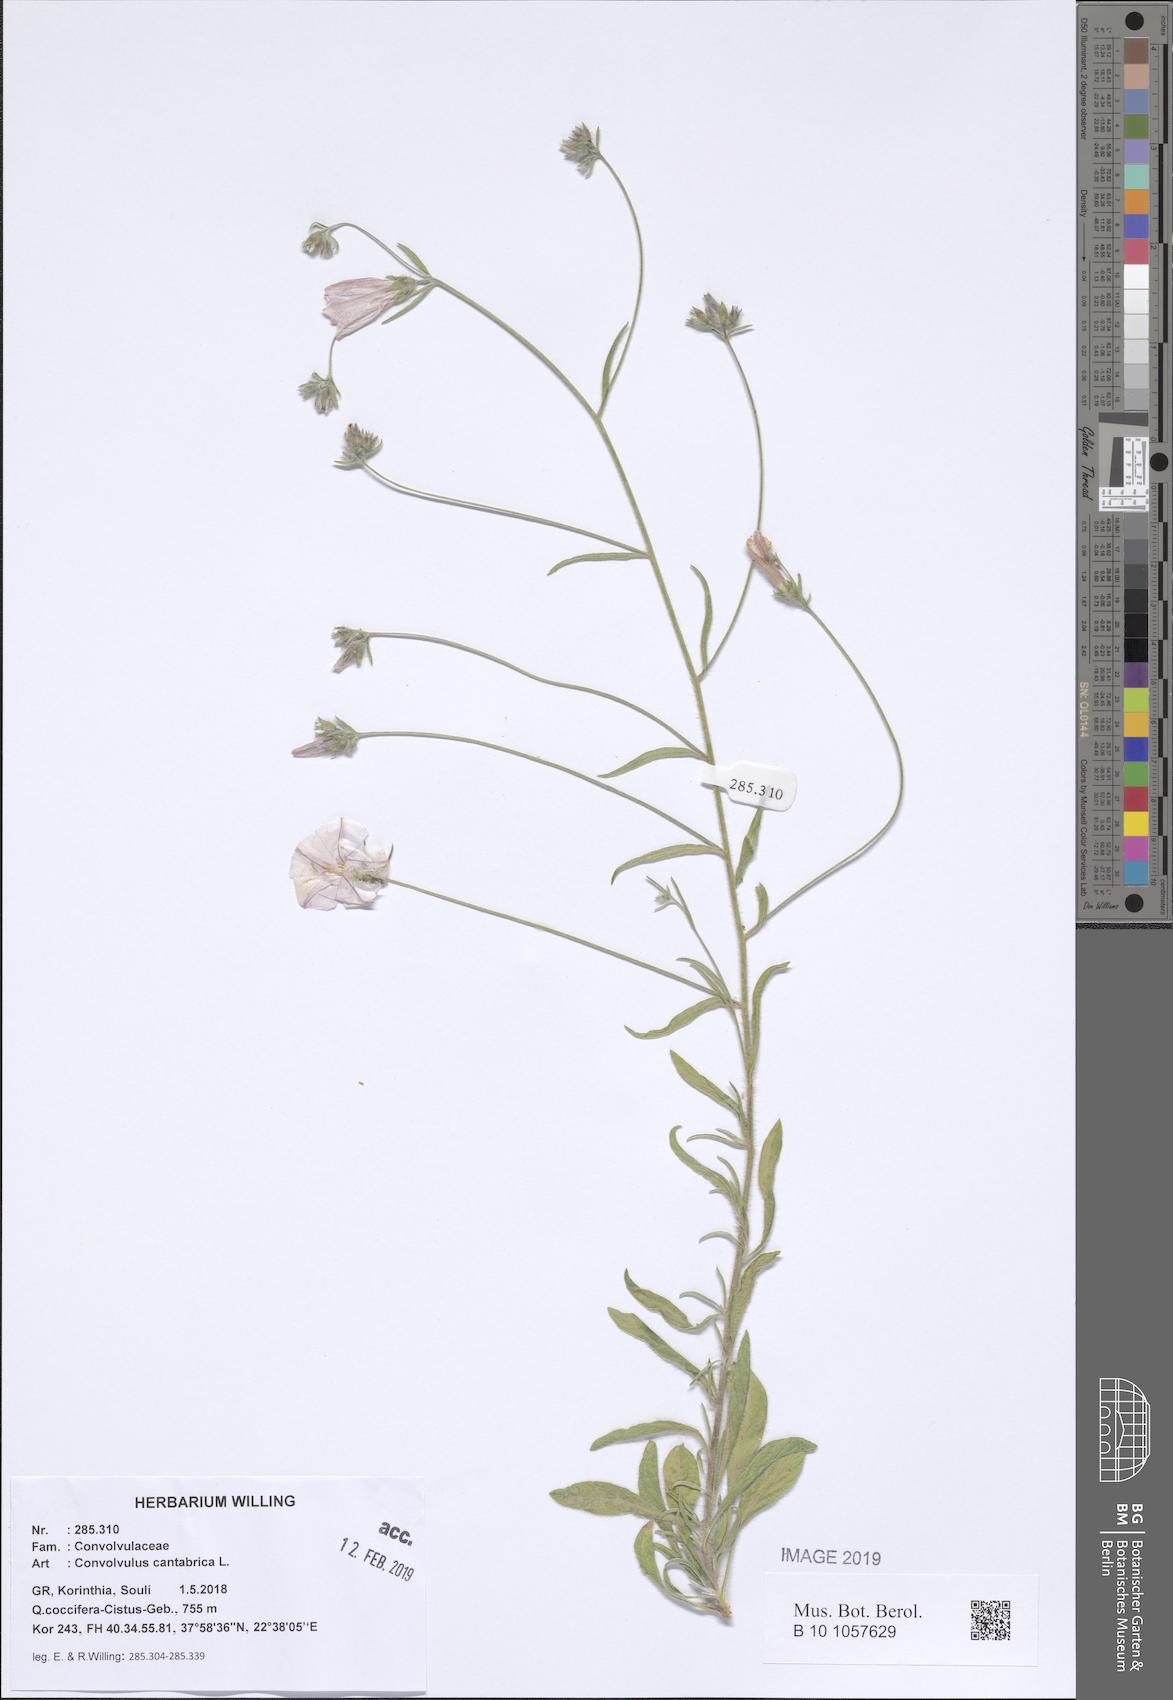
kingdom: Plantae
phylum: Tracheophyta
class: Magnoliopsida
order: Solanales
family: Convolvulaceae
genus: Convolvulus
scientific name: Convolvulus cantabrica
